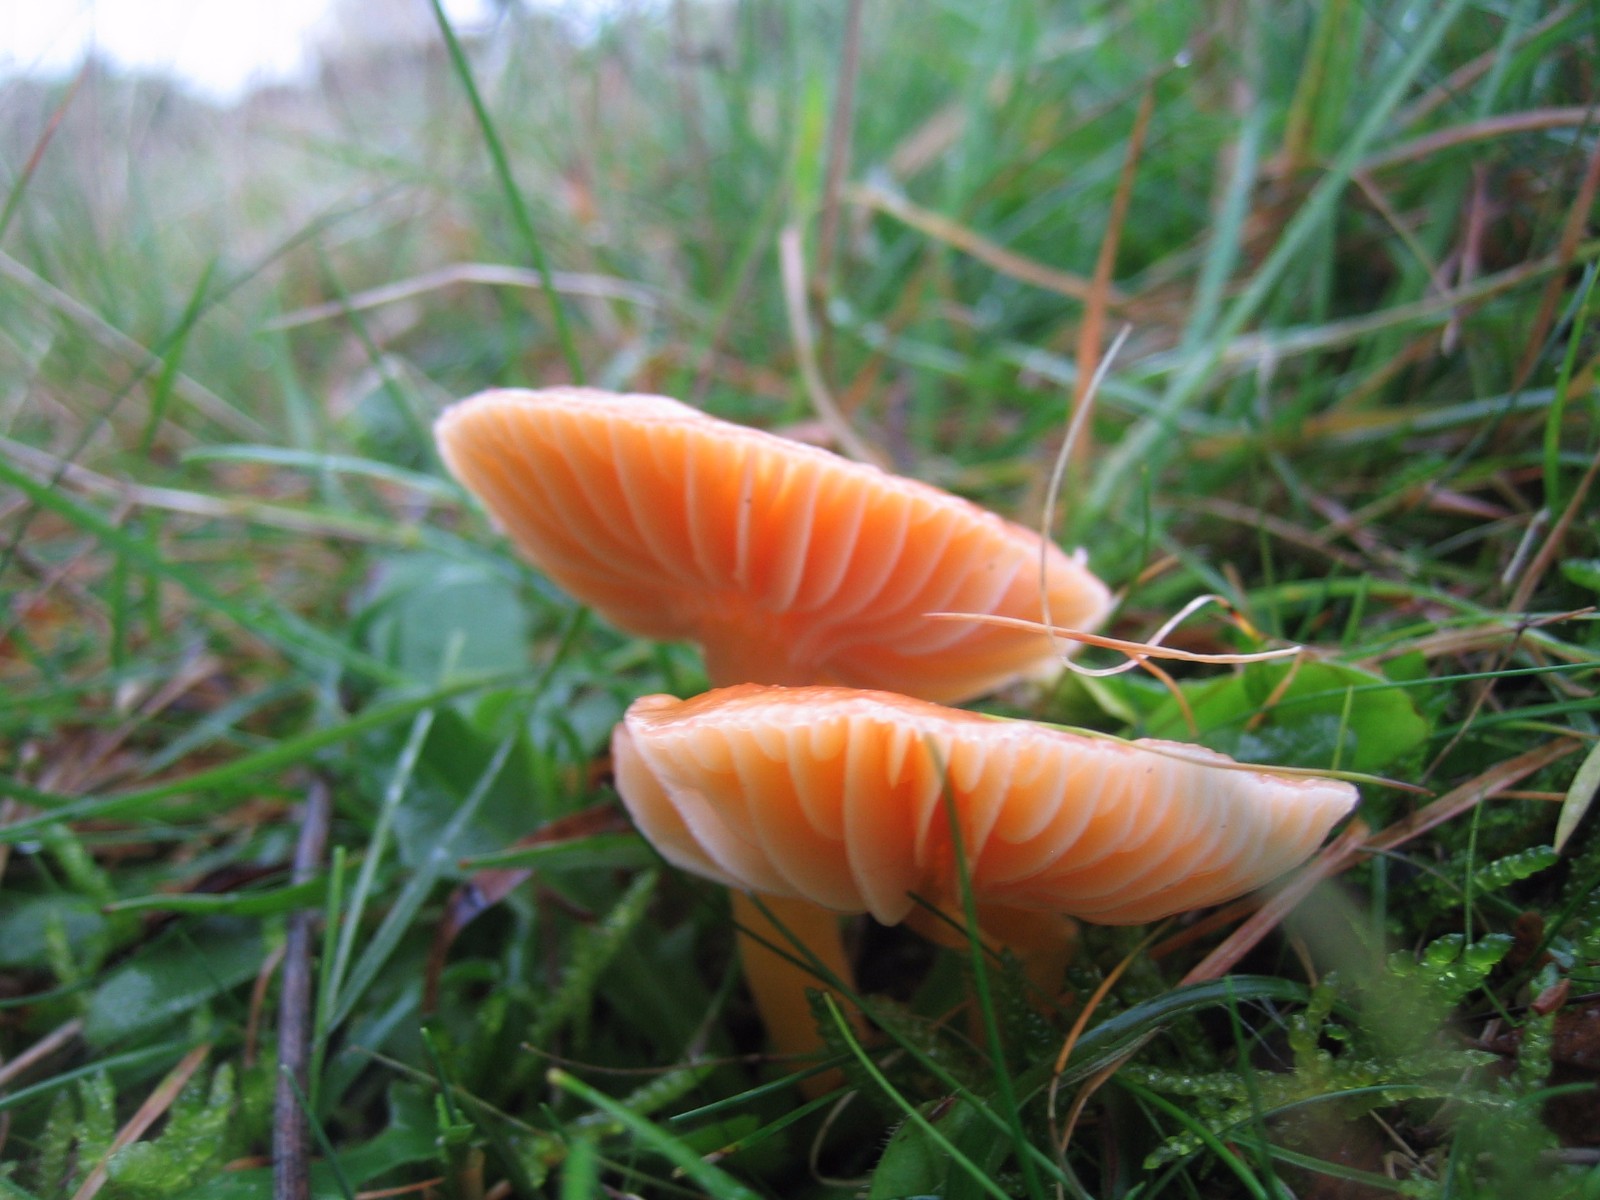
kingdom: Fungi
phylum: Basidiomycota
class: Agaricomycetes
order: Agaricales
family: Hygrophoraceae
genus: Gliophorus
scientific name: Gliophorus laetus
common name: brusk-vokshat
